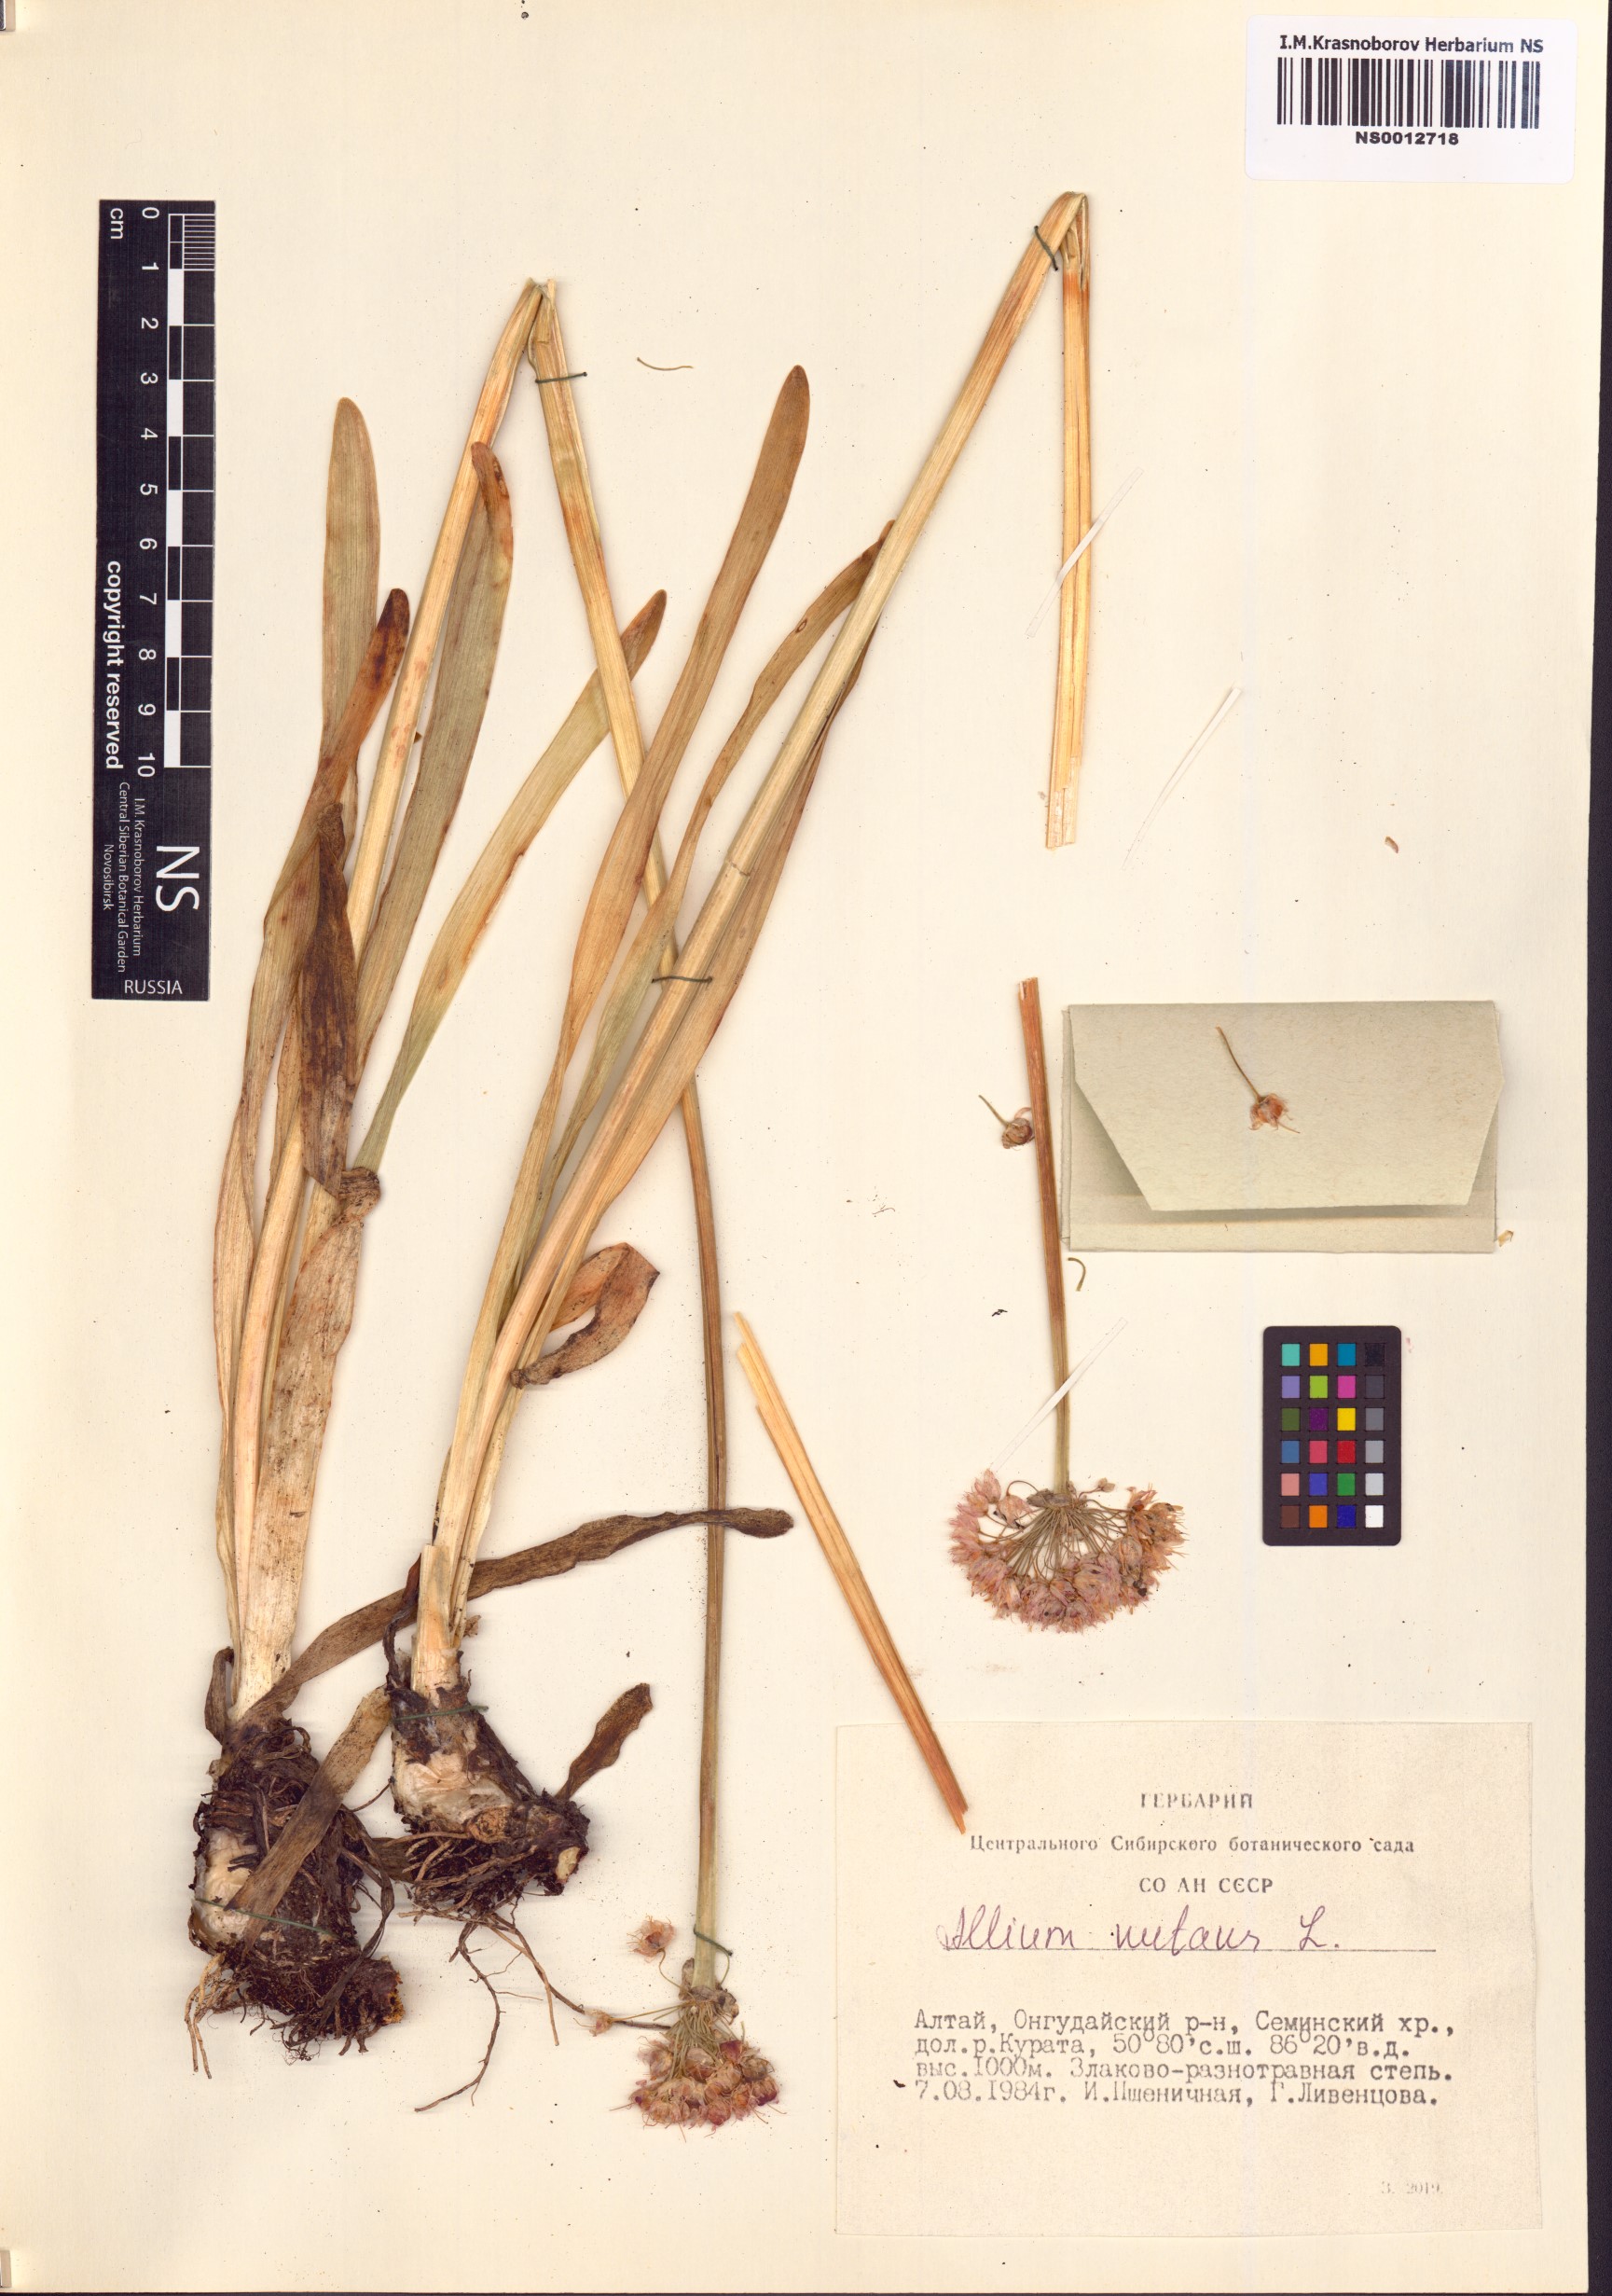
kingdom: Plantae
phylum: Tracheophyta
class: Liliopsida
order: Asparagales
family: Amaryllidaceae
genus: Allium
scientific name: Allium nutans
